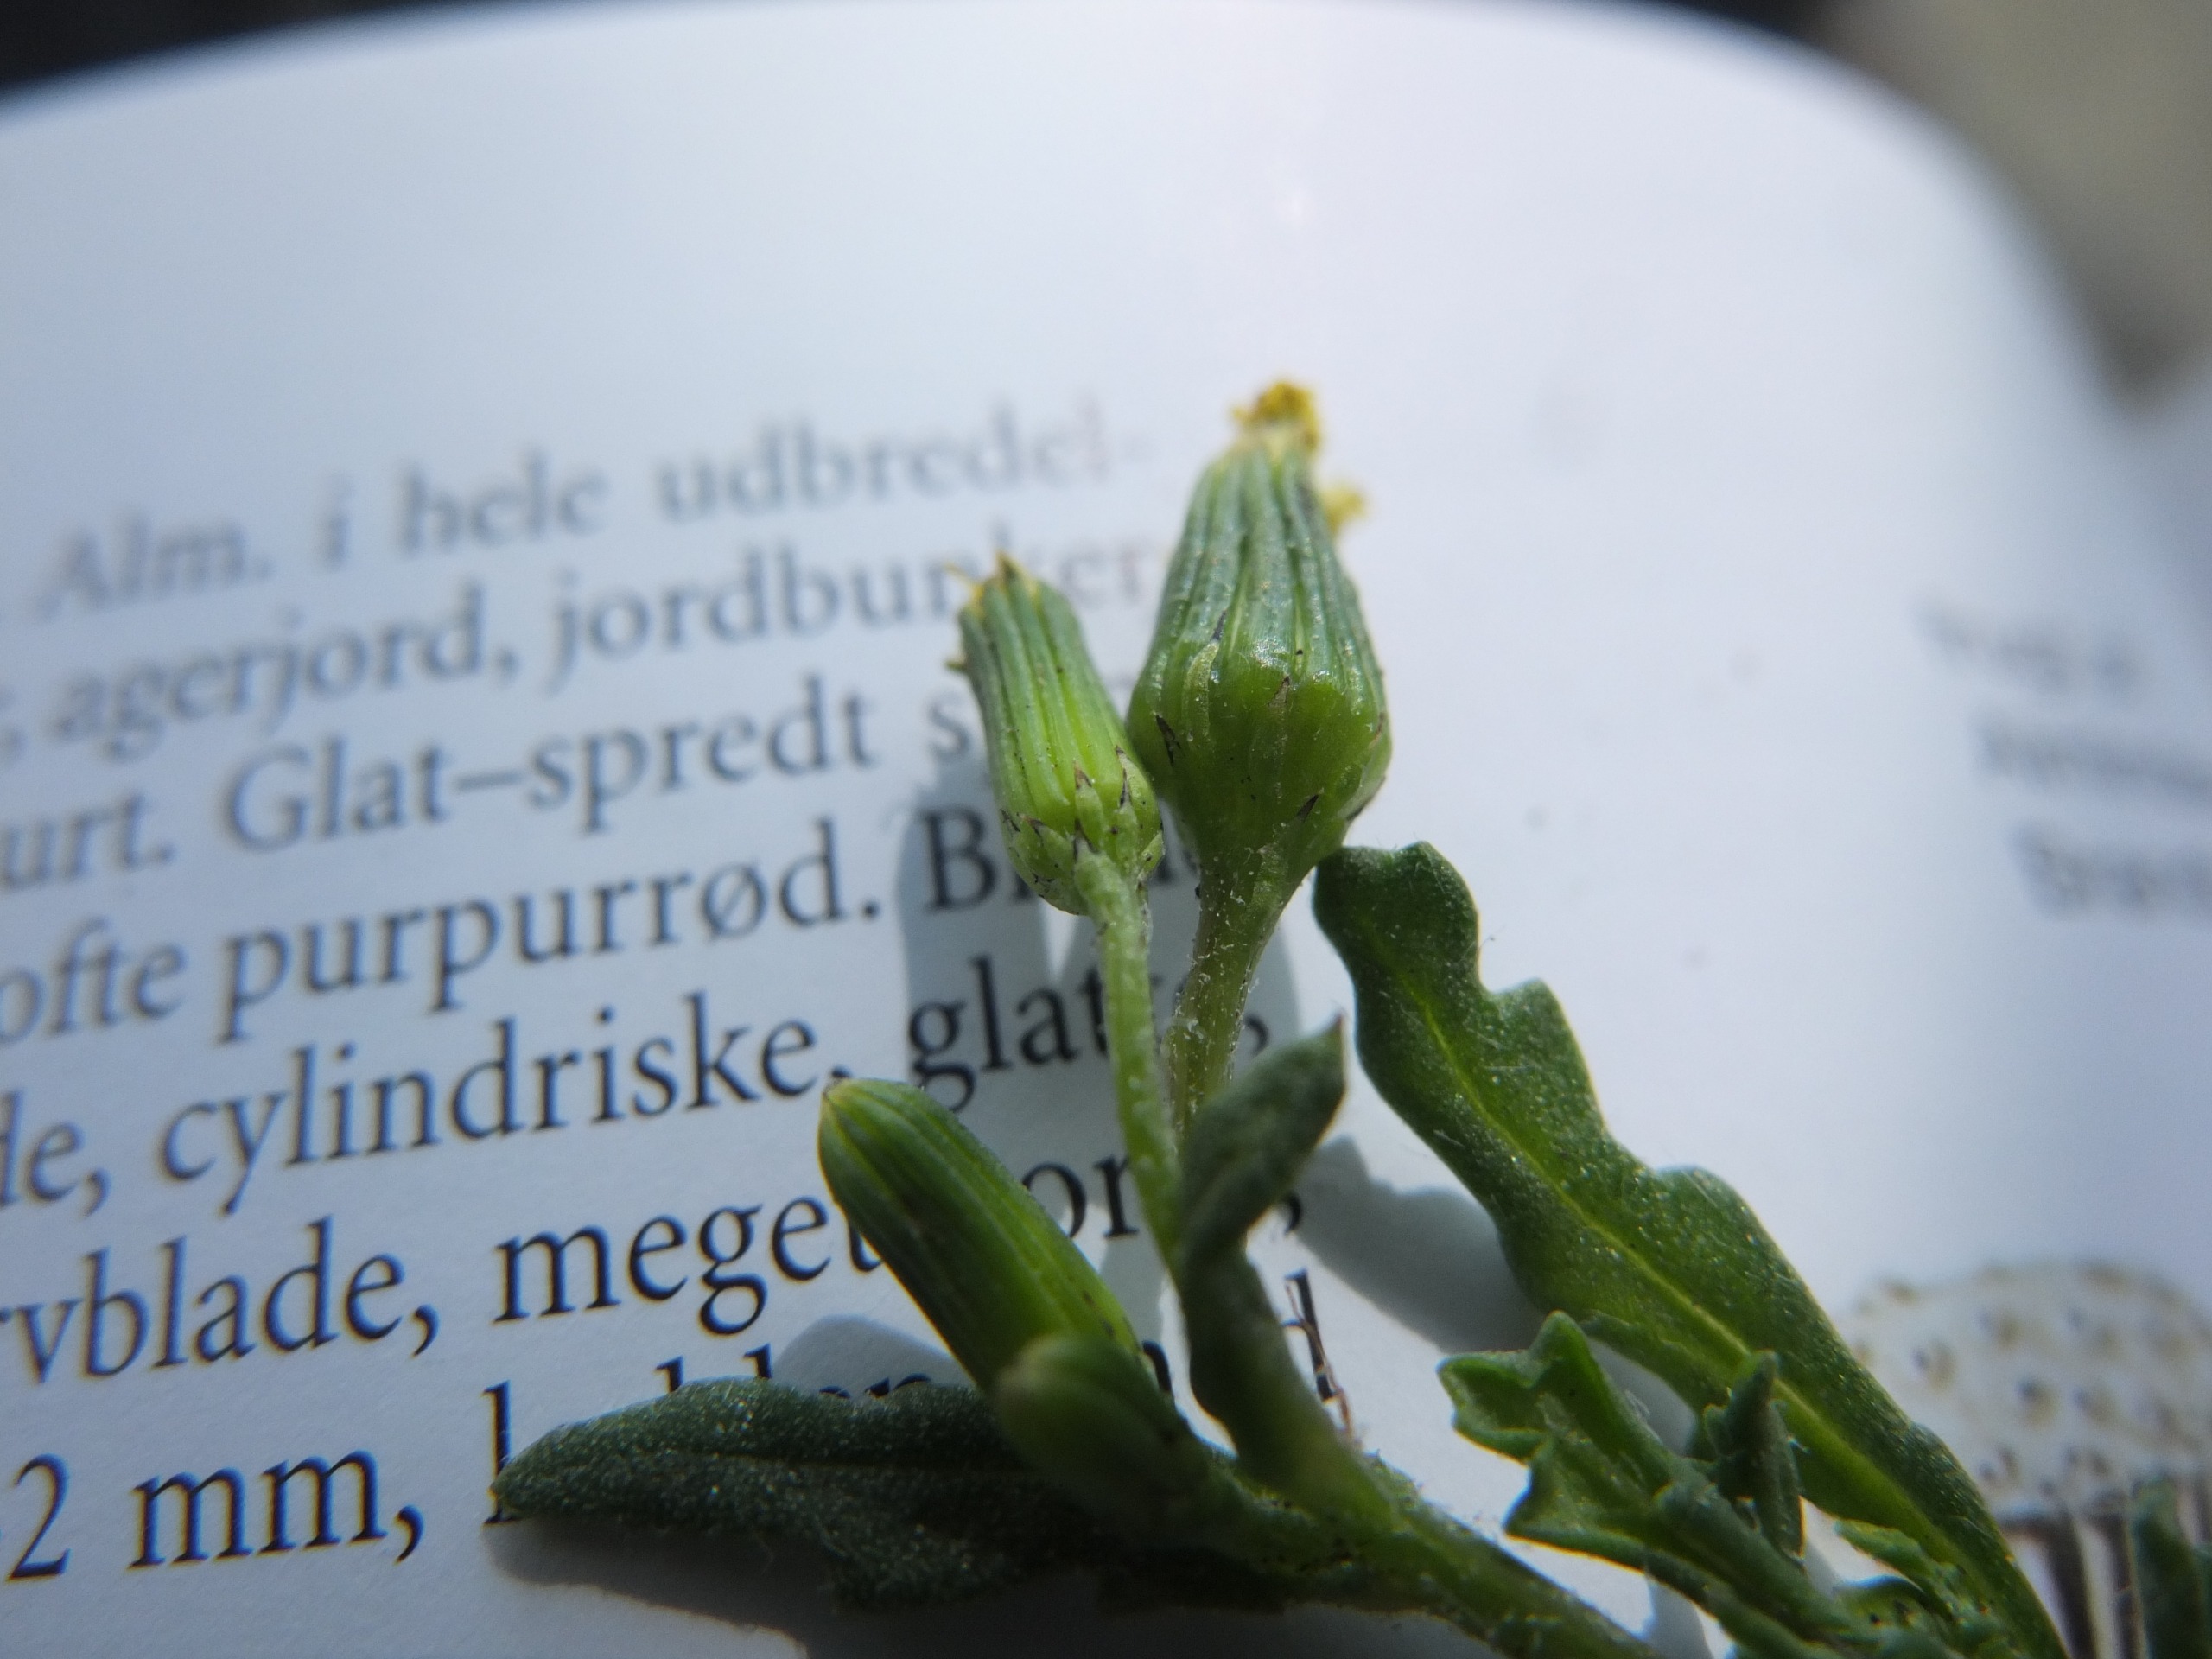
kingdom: Plantae
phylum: Tracheophyta
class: Magnoliopsida
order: Asterales
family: Asteraceae
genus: Senecio
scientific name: Senecio vulgaris
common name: Almindelig brandbæger
